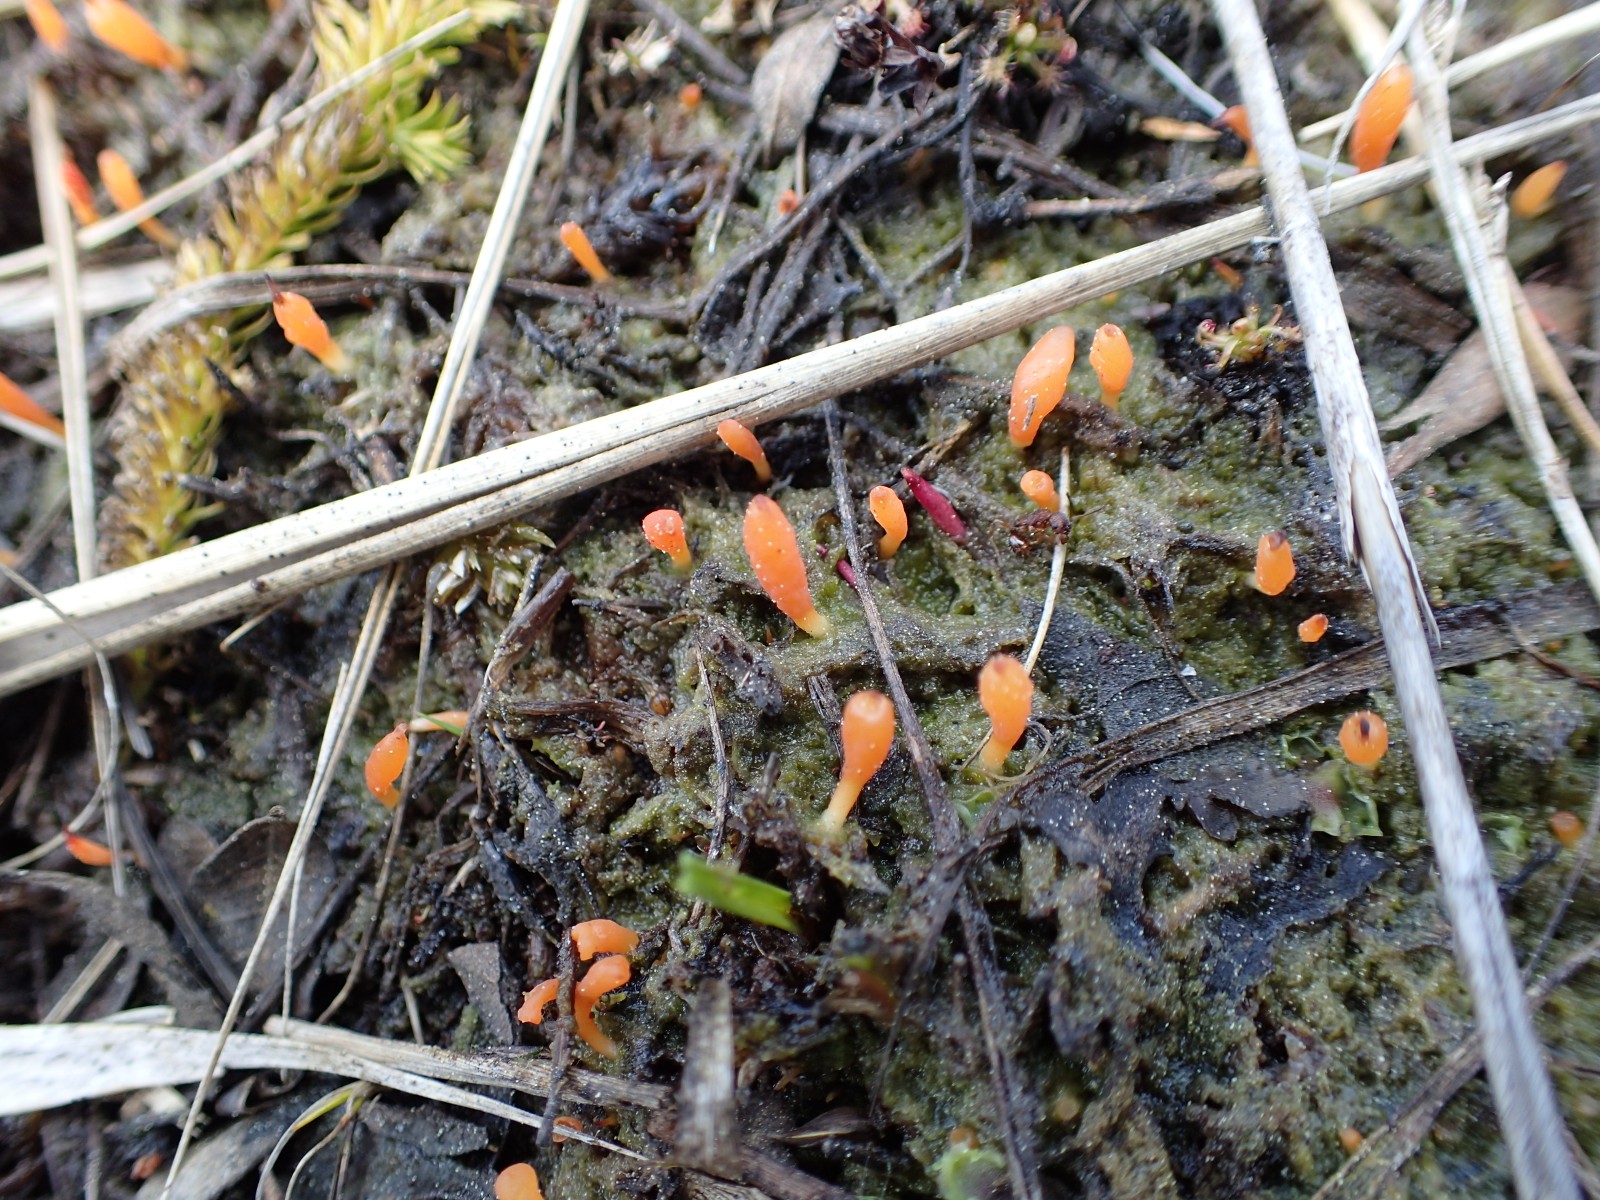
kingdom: Fungi
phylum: Basidiomycota
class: Agaricomycetes
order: Cantharellales
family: Hydnaceae
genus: Multiclavula
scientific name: Multiclavula vernalis
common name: abrikos-lavkølle
